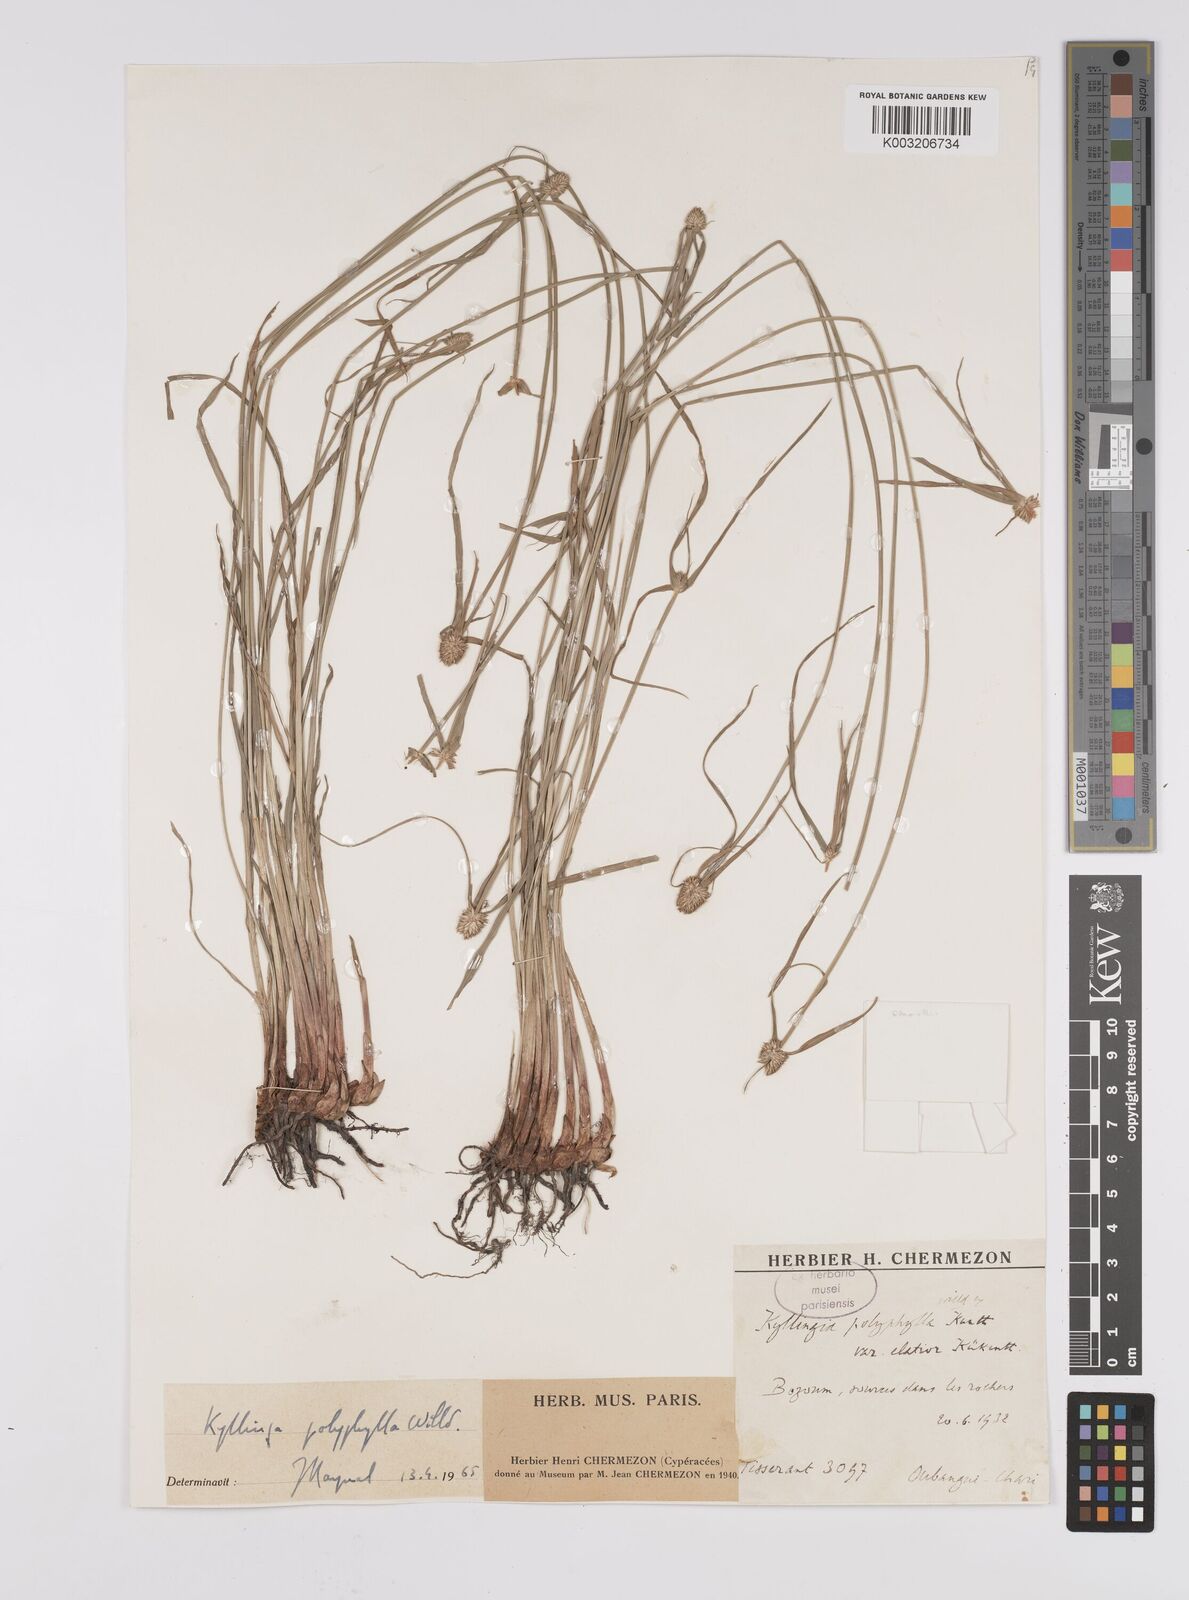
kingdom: Plantae
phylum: Tracheophyta
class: Liliopsida
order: Poales
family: Cyperaceae
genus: Cyperus
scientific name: Cyperus
